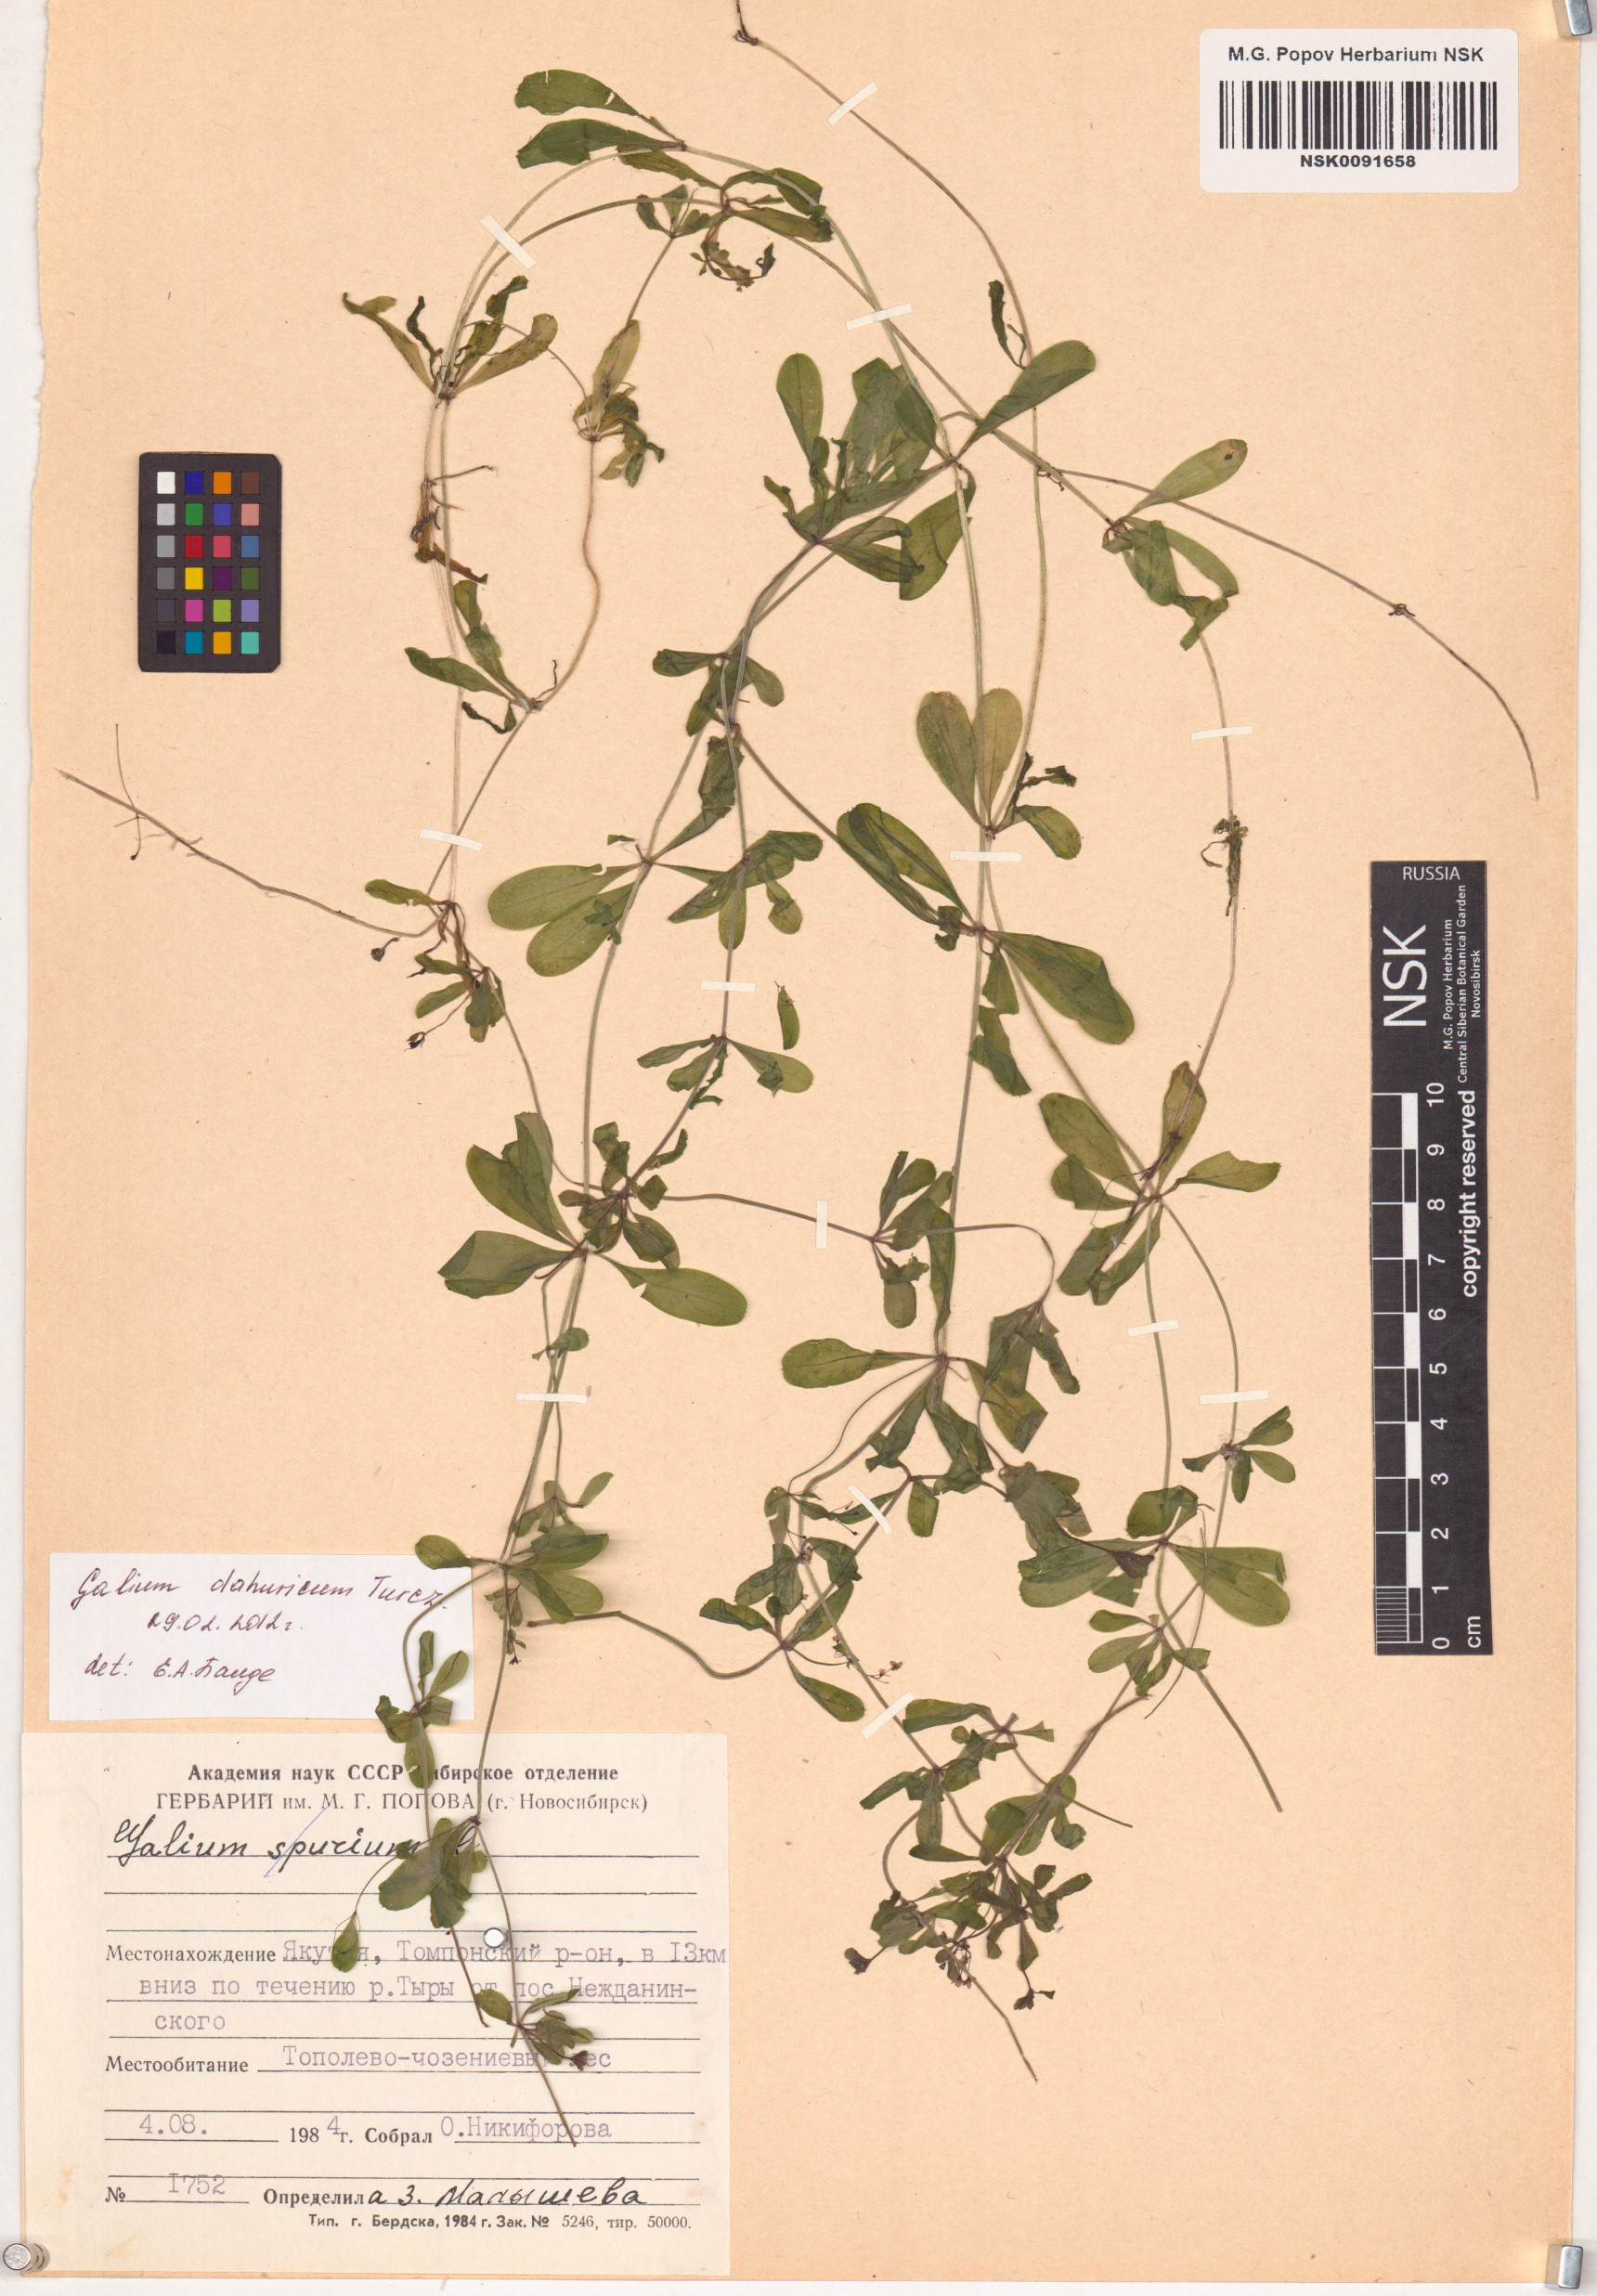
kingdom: Plantae
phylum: Tracheophyta
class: Magnoliopsida
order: Gentianales
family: Rubiaceae
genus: Galium
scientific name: Galium dahuricum
